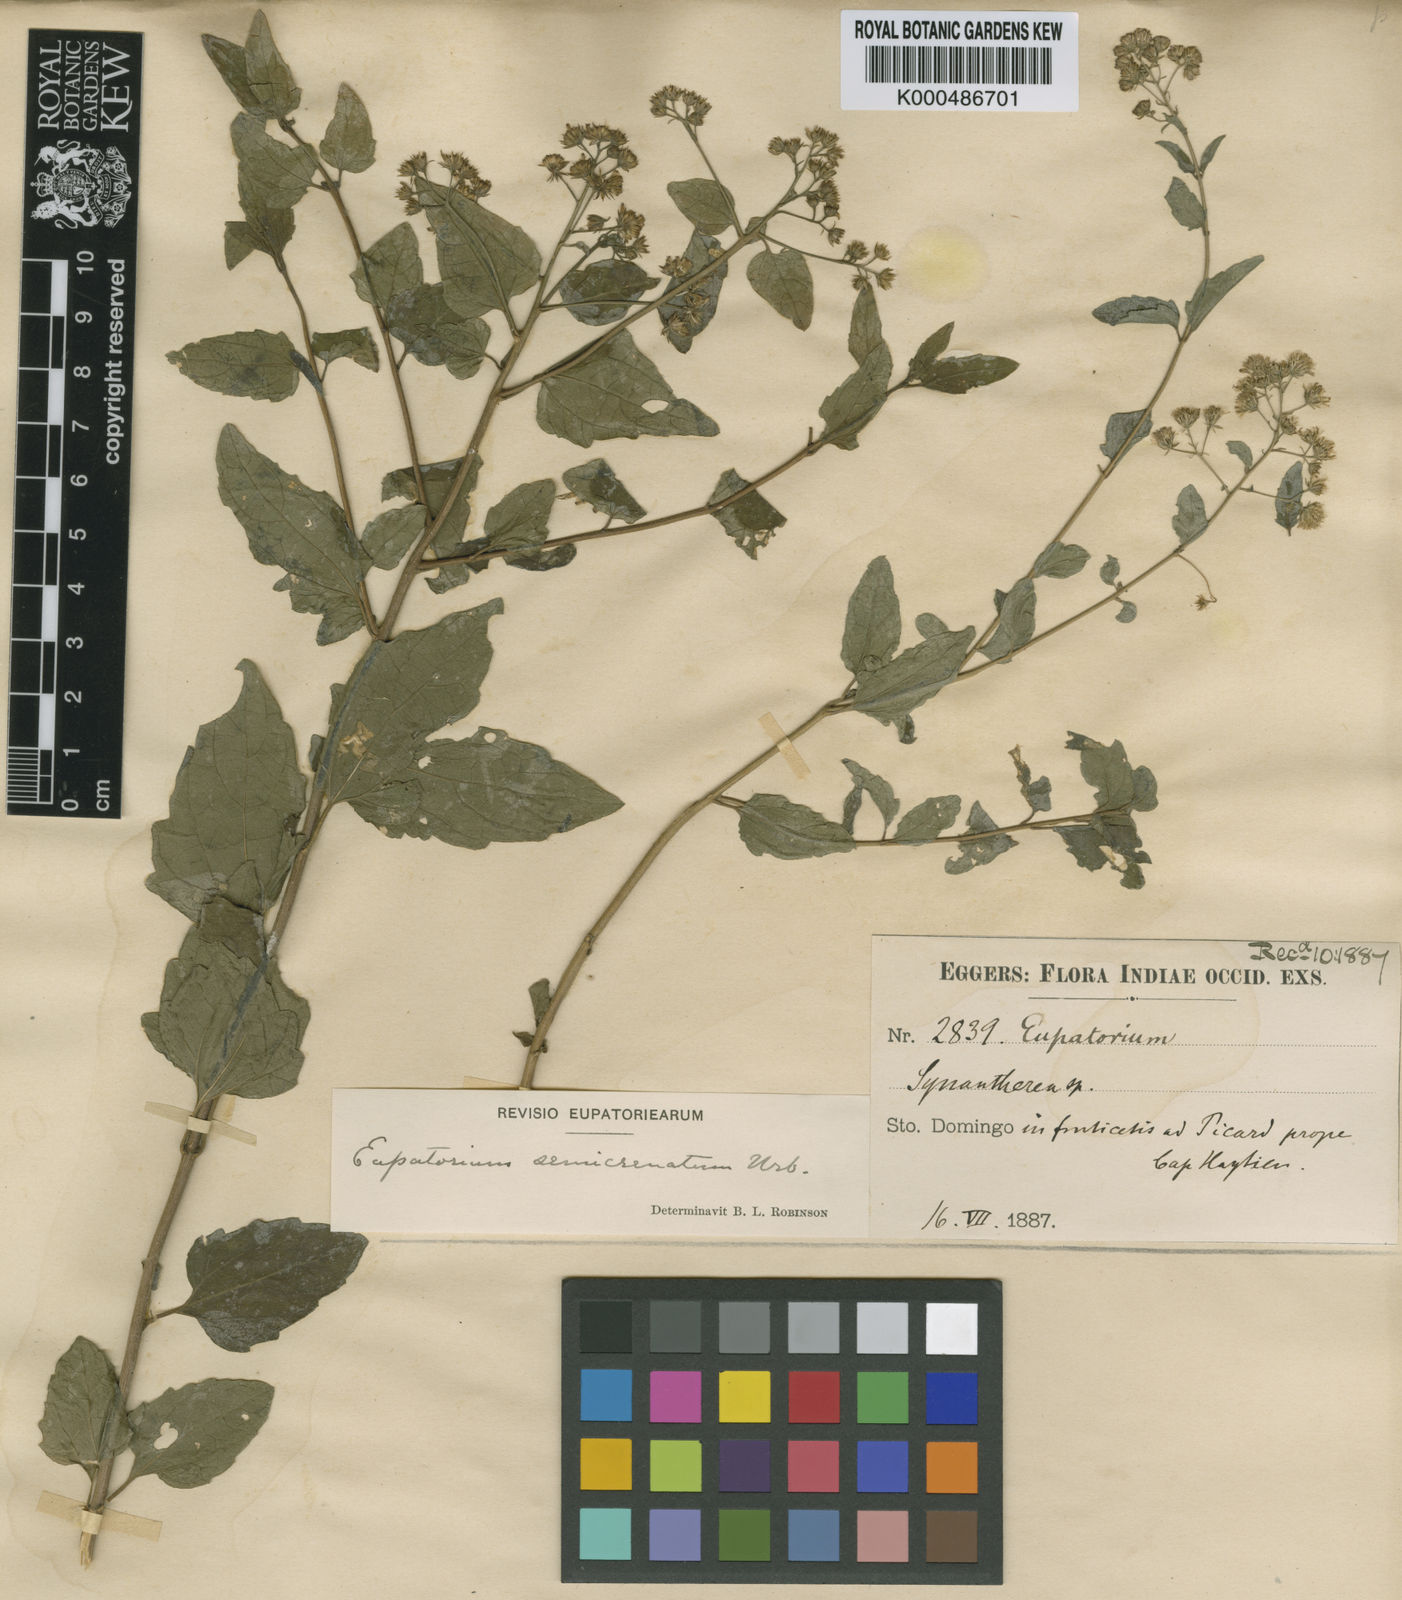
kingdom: Plantae
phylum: Tracheophyta
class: Magnoliopsida
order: Asterales
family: Asteraceae
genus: Koanophyllon
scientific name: Koanophyllon semicrenatum
